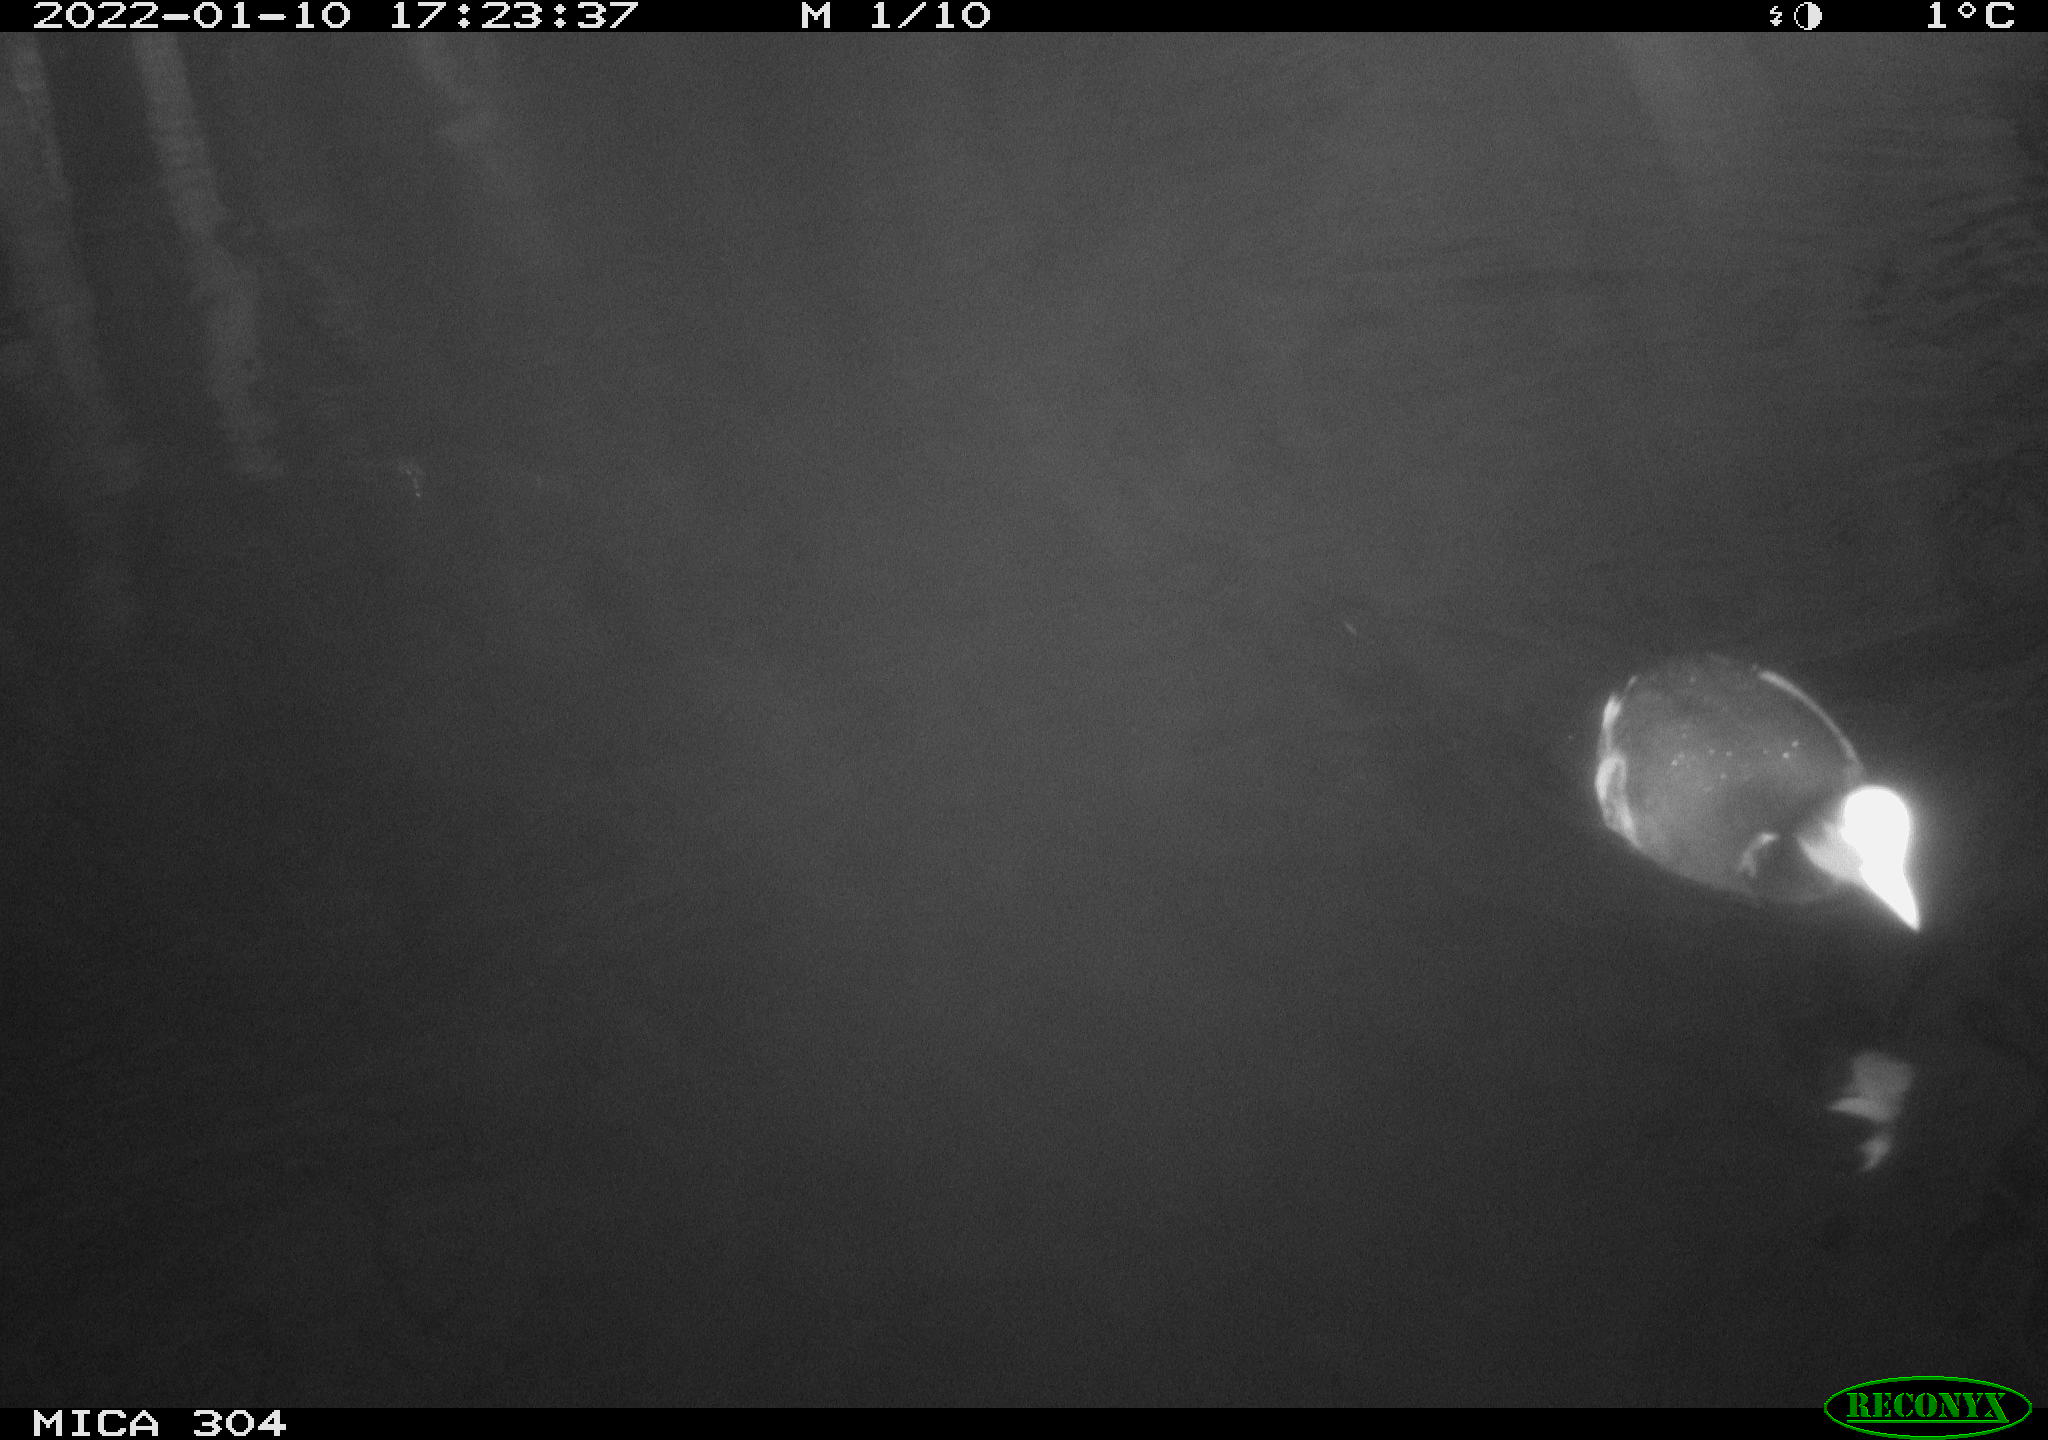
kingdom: Animalia
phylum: Chordata
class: Aves
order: Anseriformes
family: Anatidae
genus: Anas
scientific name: Anas
